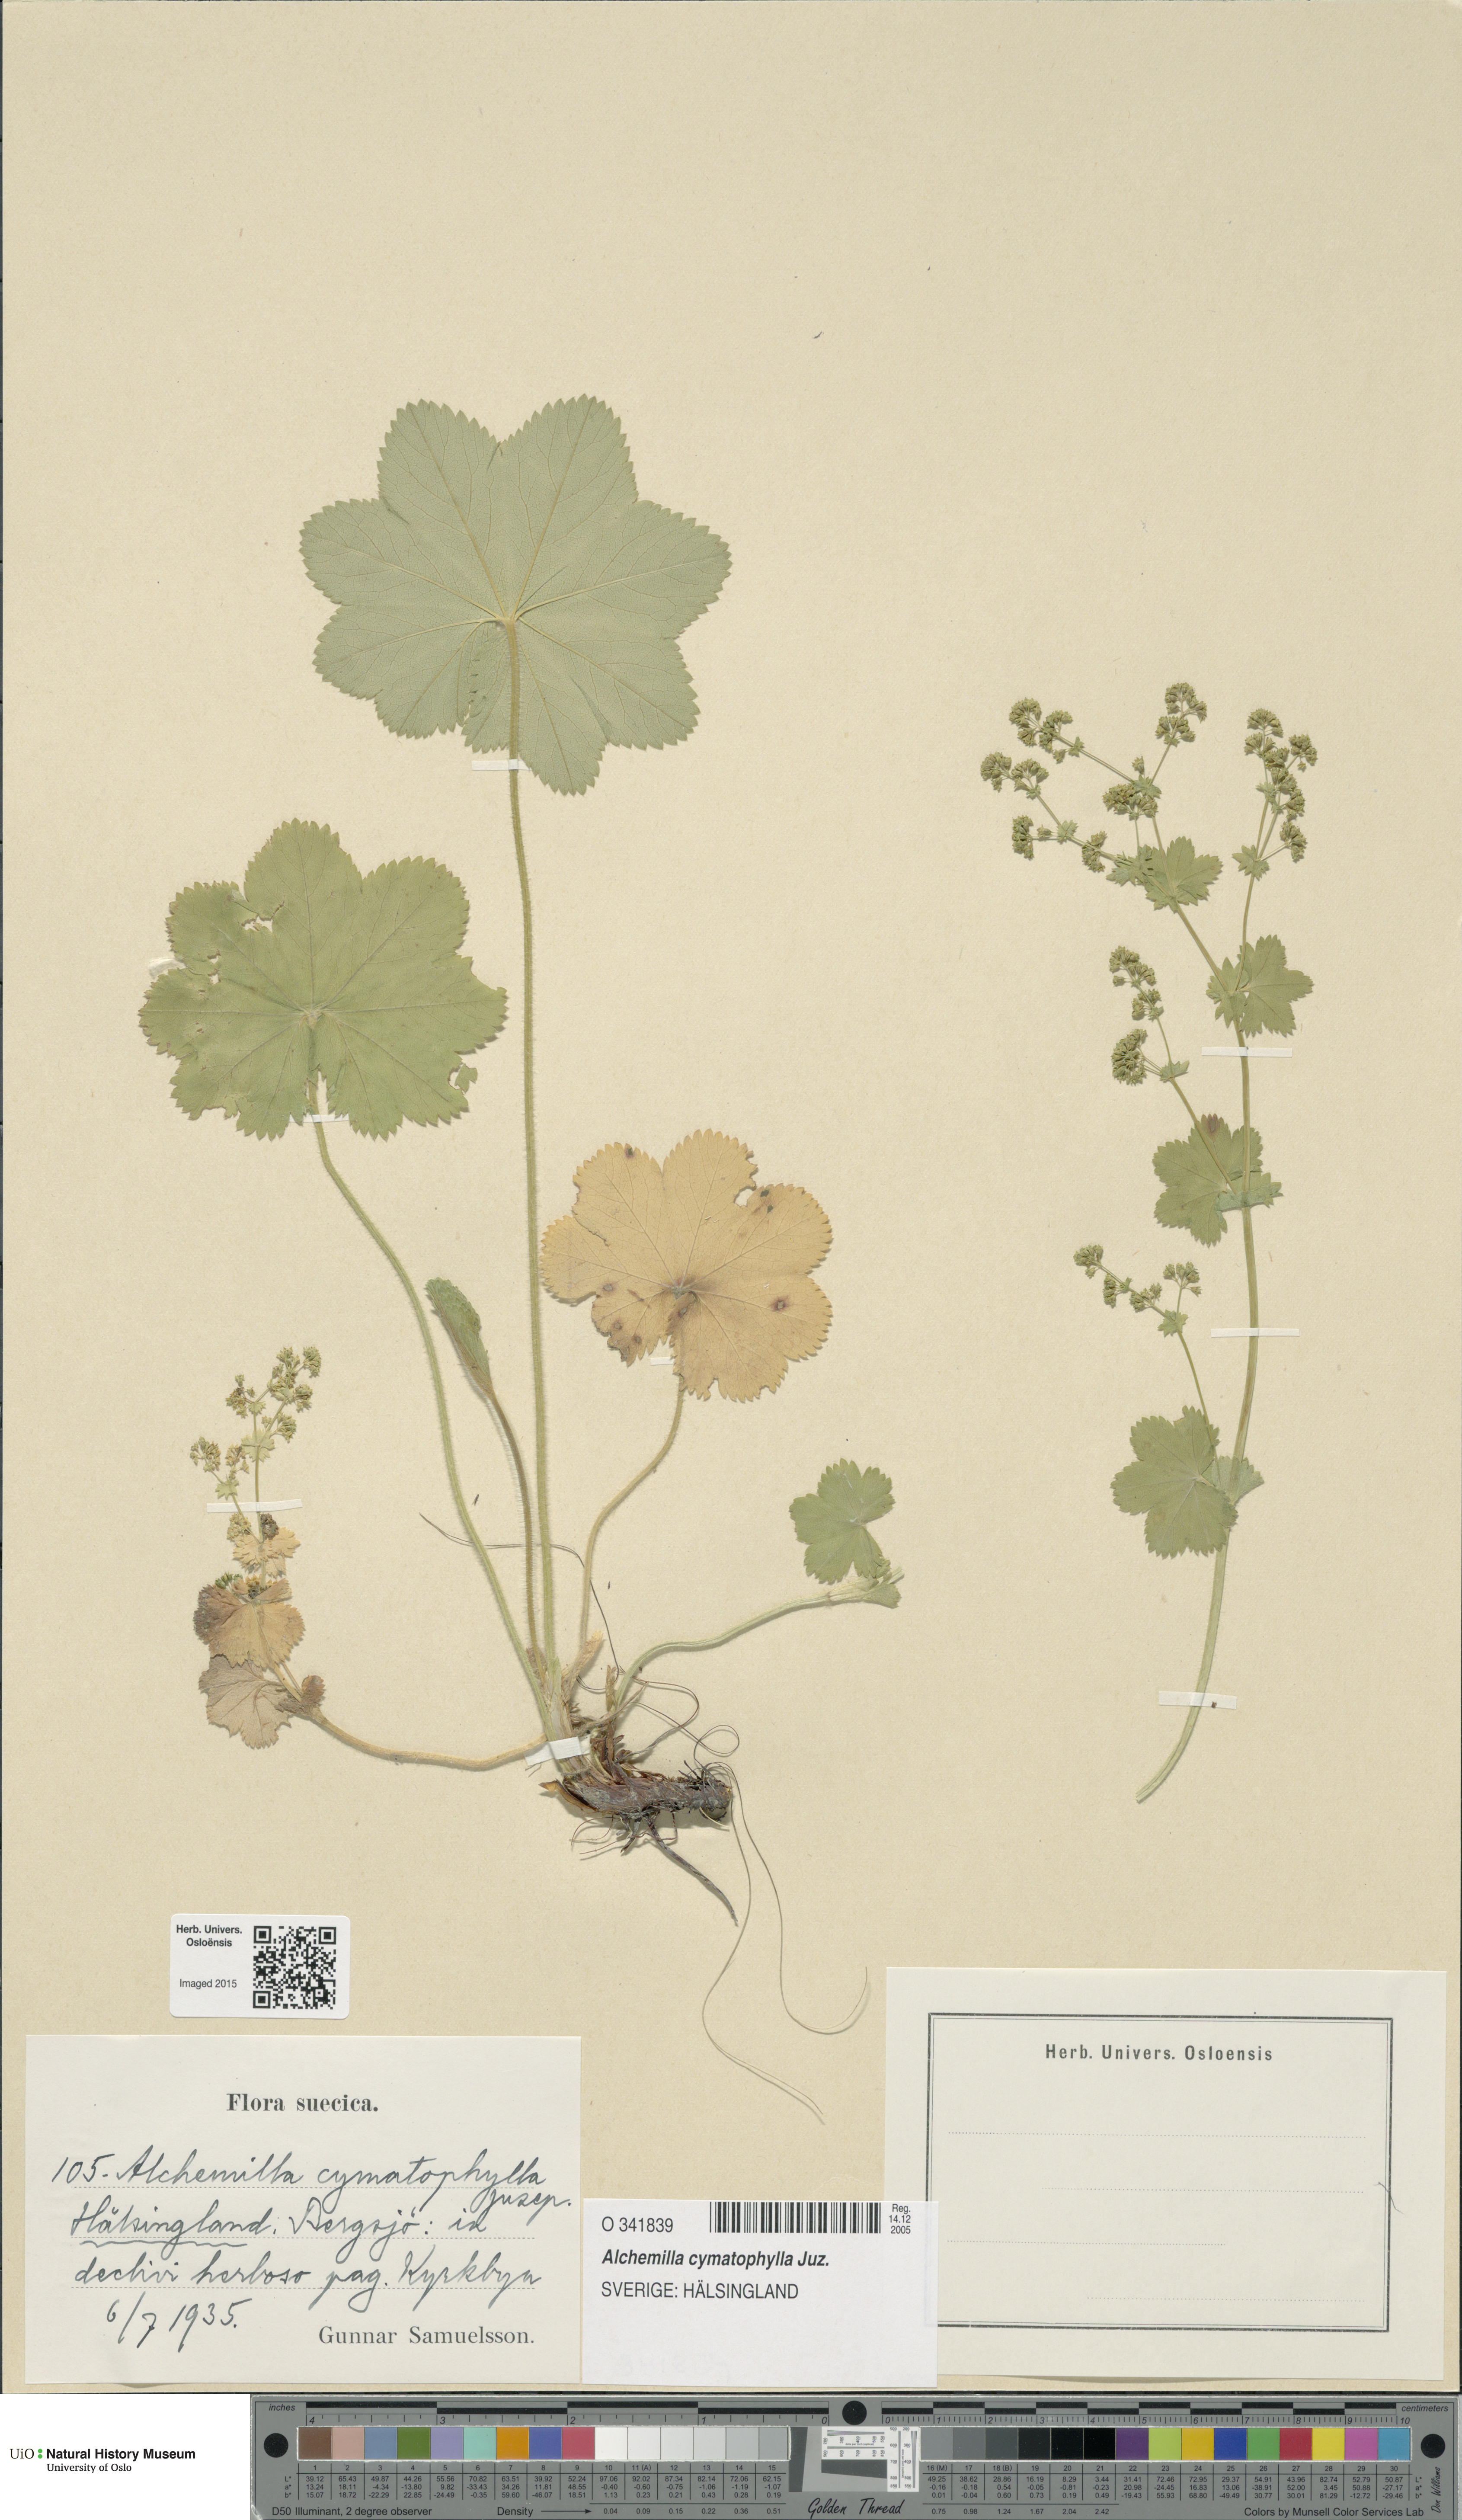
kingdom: Plantae
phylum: Tracheophyta
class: Magnoliopsida
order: Rosales
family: Rosaceae
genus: Alchemilla
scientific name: Alchemilla cymatophylla
